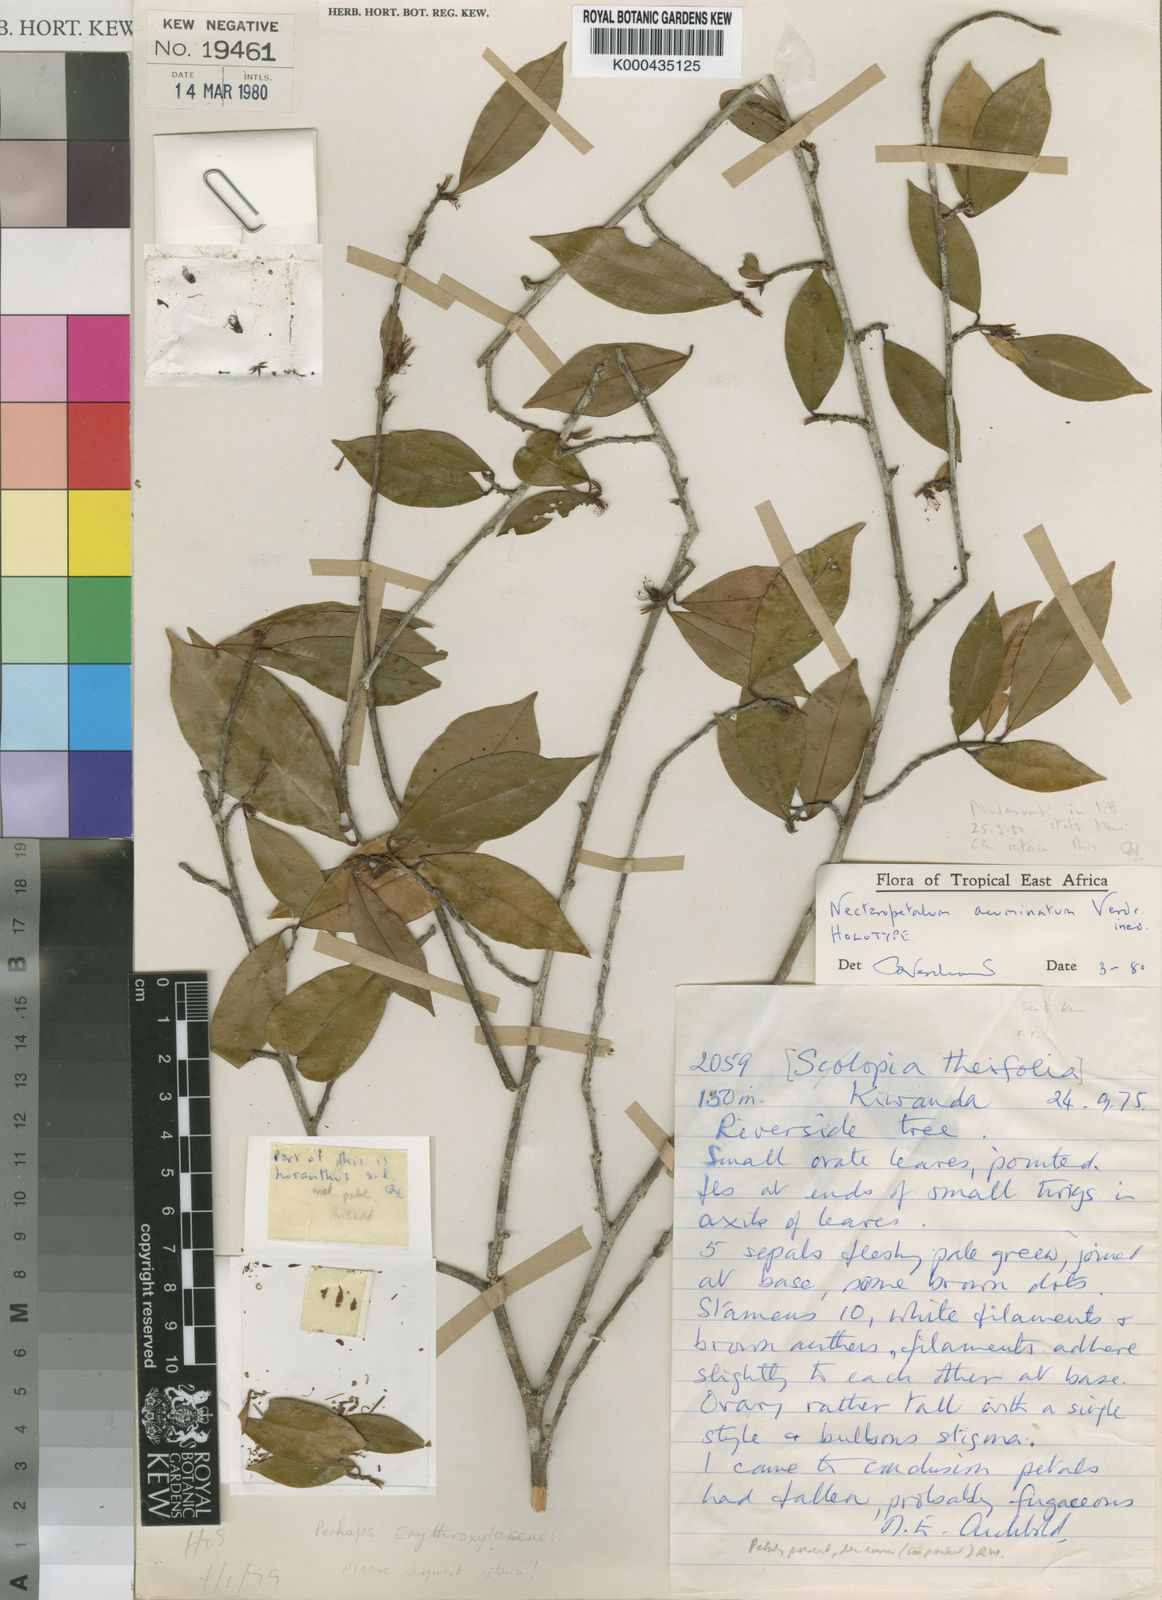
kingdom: Plantae
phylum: Tracheophyta
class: Magnoliopsida
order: Malpighiales
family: Erythroxylaceae
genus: Nectaropetalum
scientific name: Nectaropetalum acuminatum
